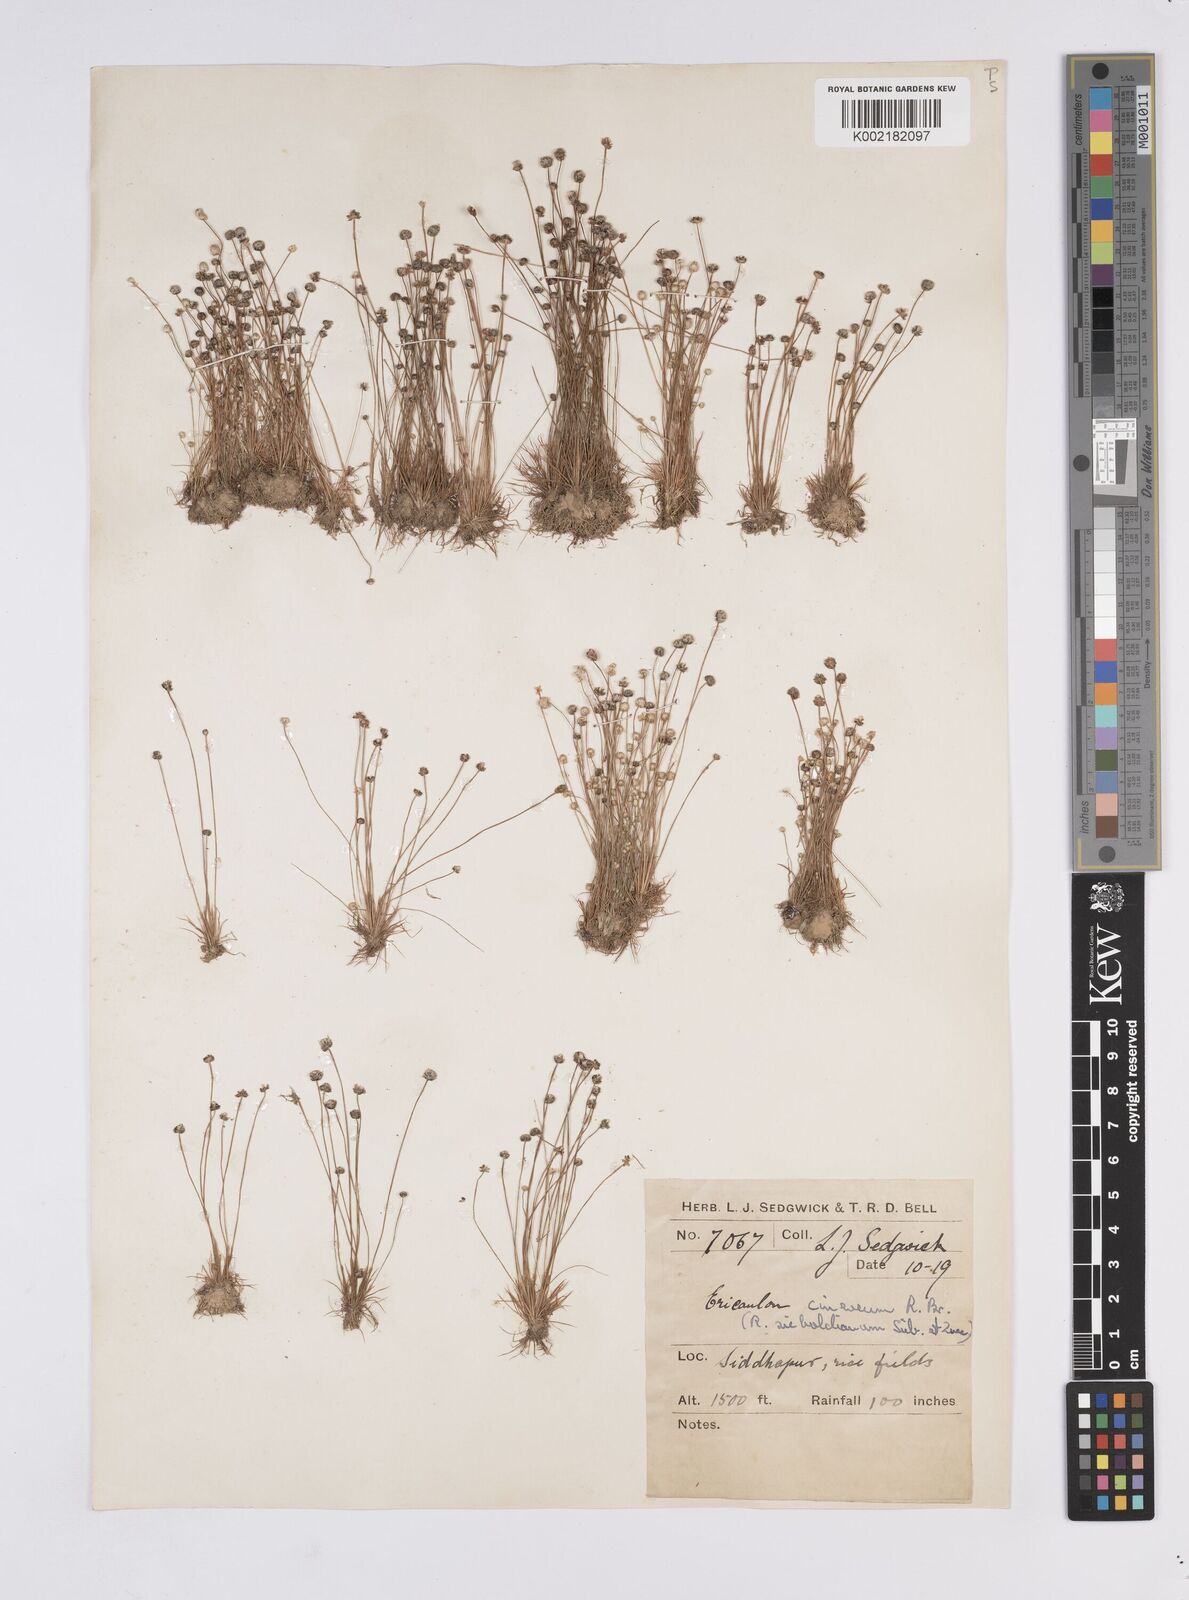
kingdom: Plantae
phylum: Tracheophyta
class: Liliopsida
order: Poales
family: Eriocaulaceae
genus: Eriocaulon
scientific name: Eriocaulon cinereum
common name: Ashy pipewort
